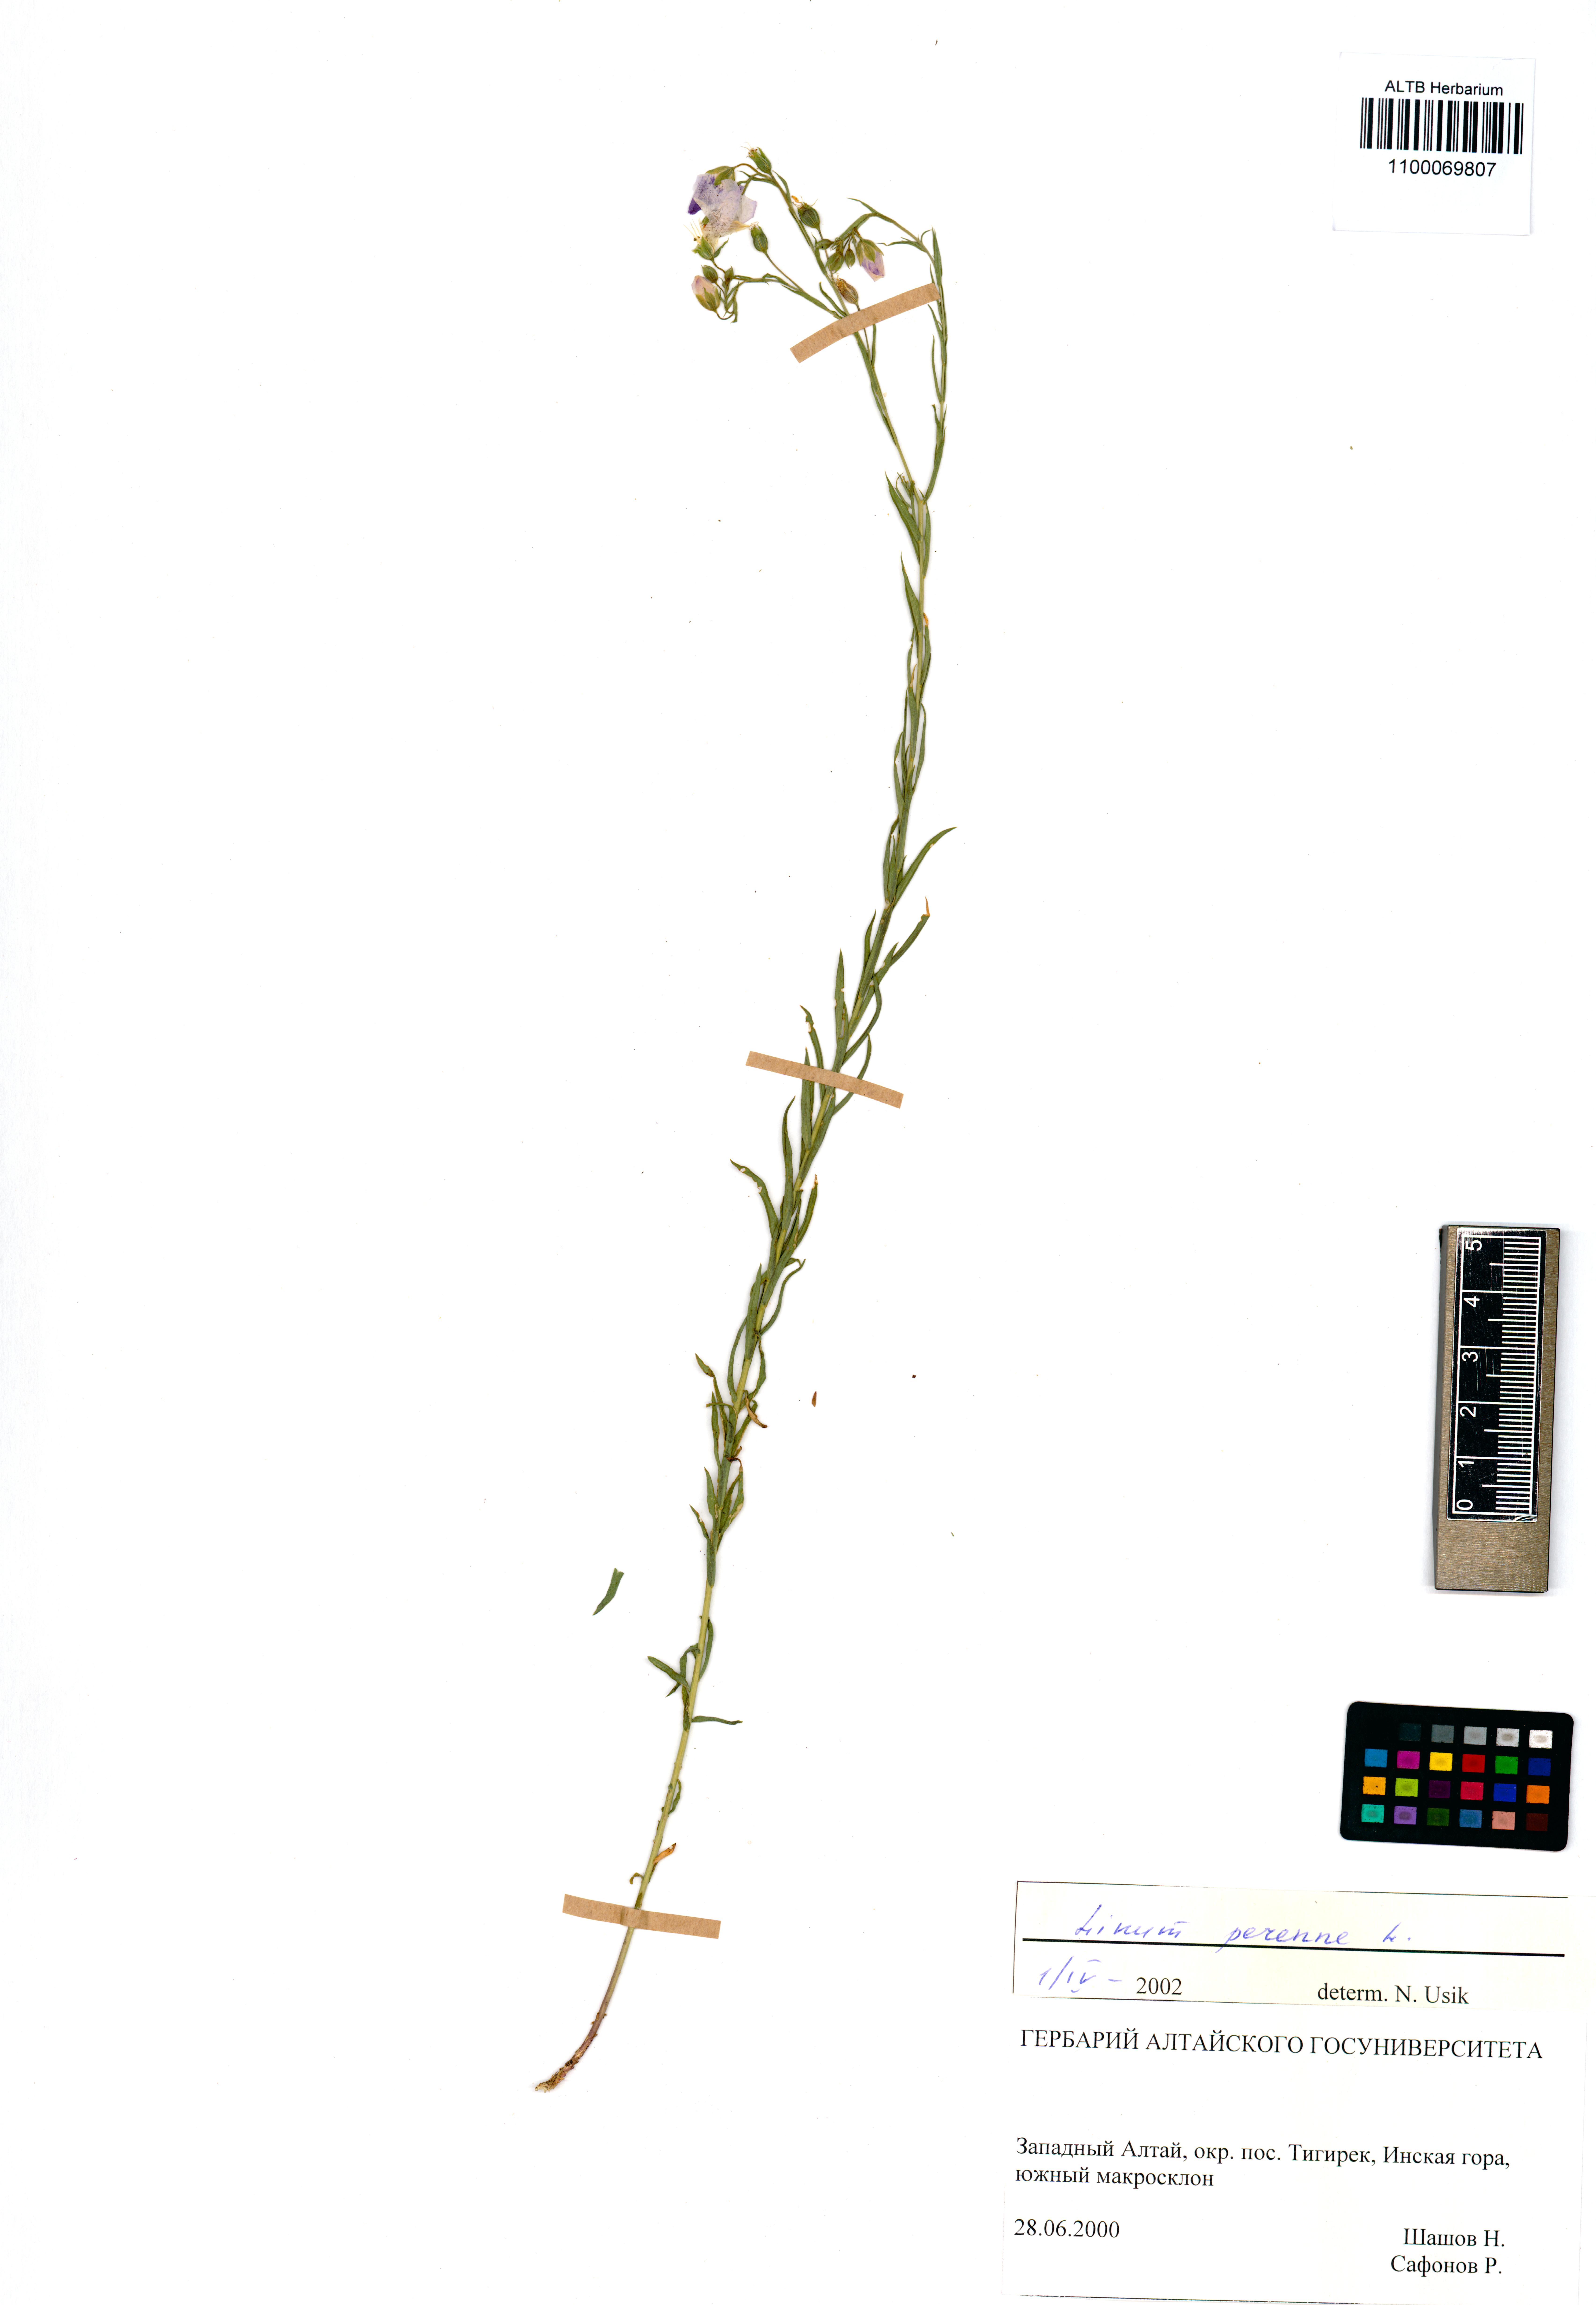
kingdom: Plantae
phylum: Tracheophyta
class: Magnoliopsida
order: Malpighiales
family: Linaceae
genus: Linum
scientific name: Linum perenne
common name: Blue flax
